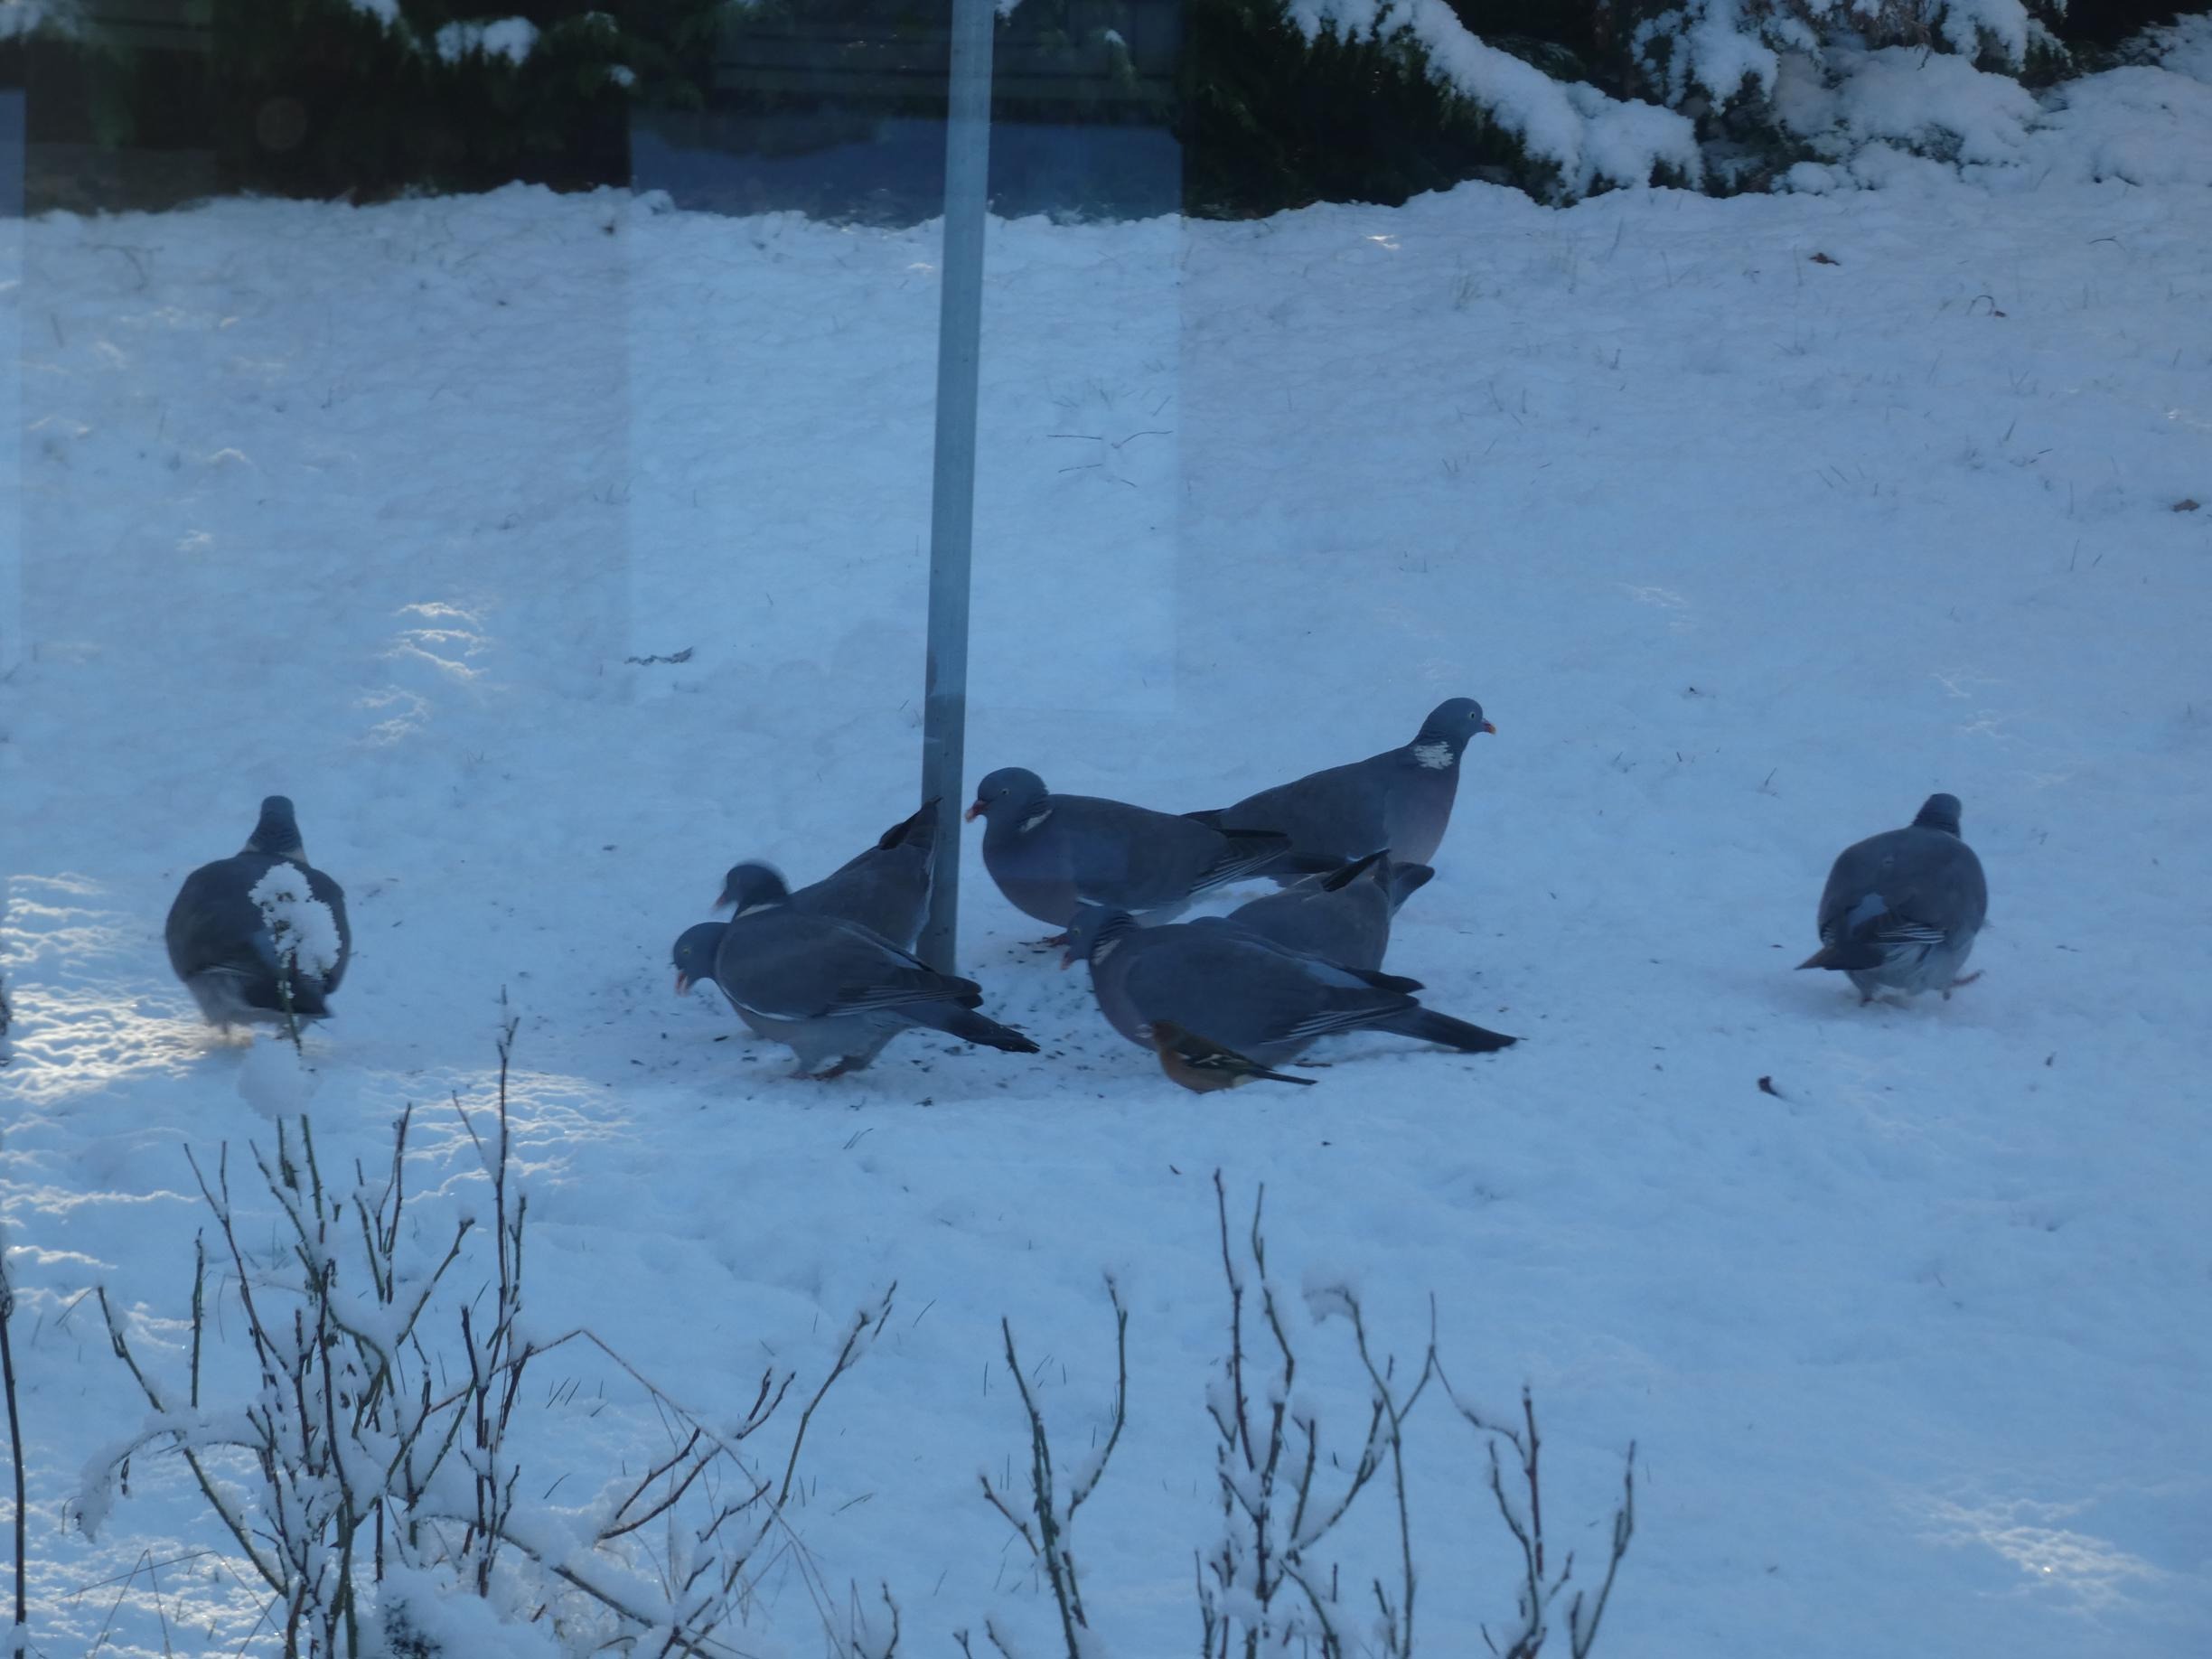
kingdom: Animalia
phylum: Chordata
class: Aves
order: Columbiformes
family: Columbidae
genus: Columba
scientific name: Columba palumbus
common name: Ringdue
